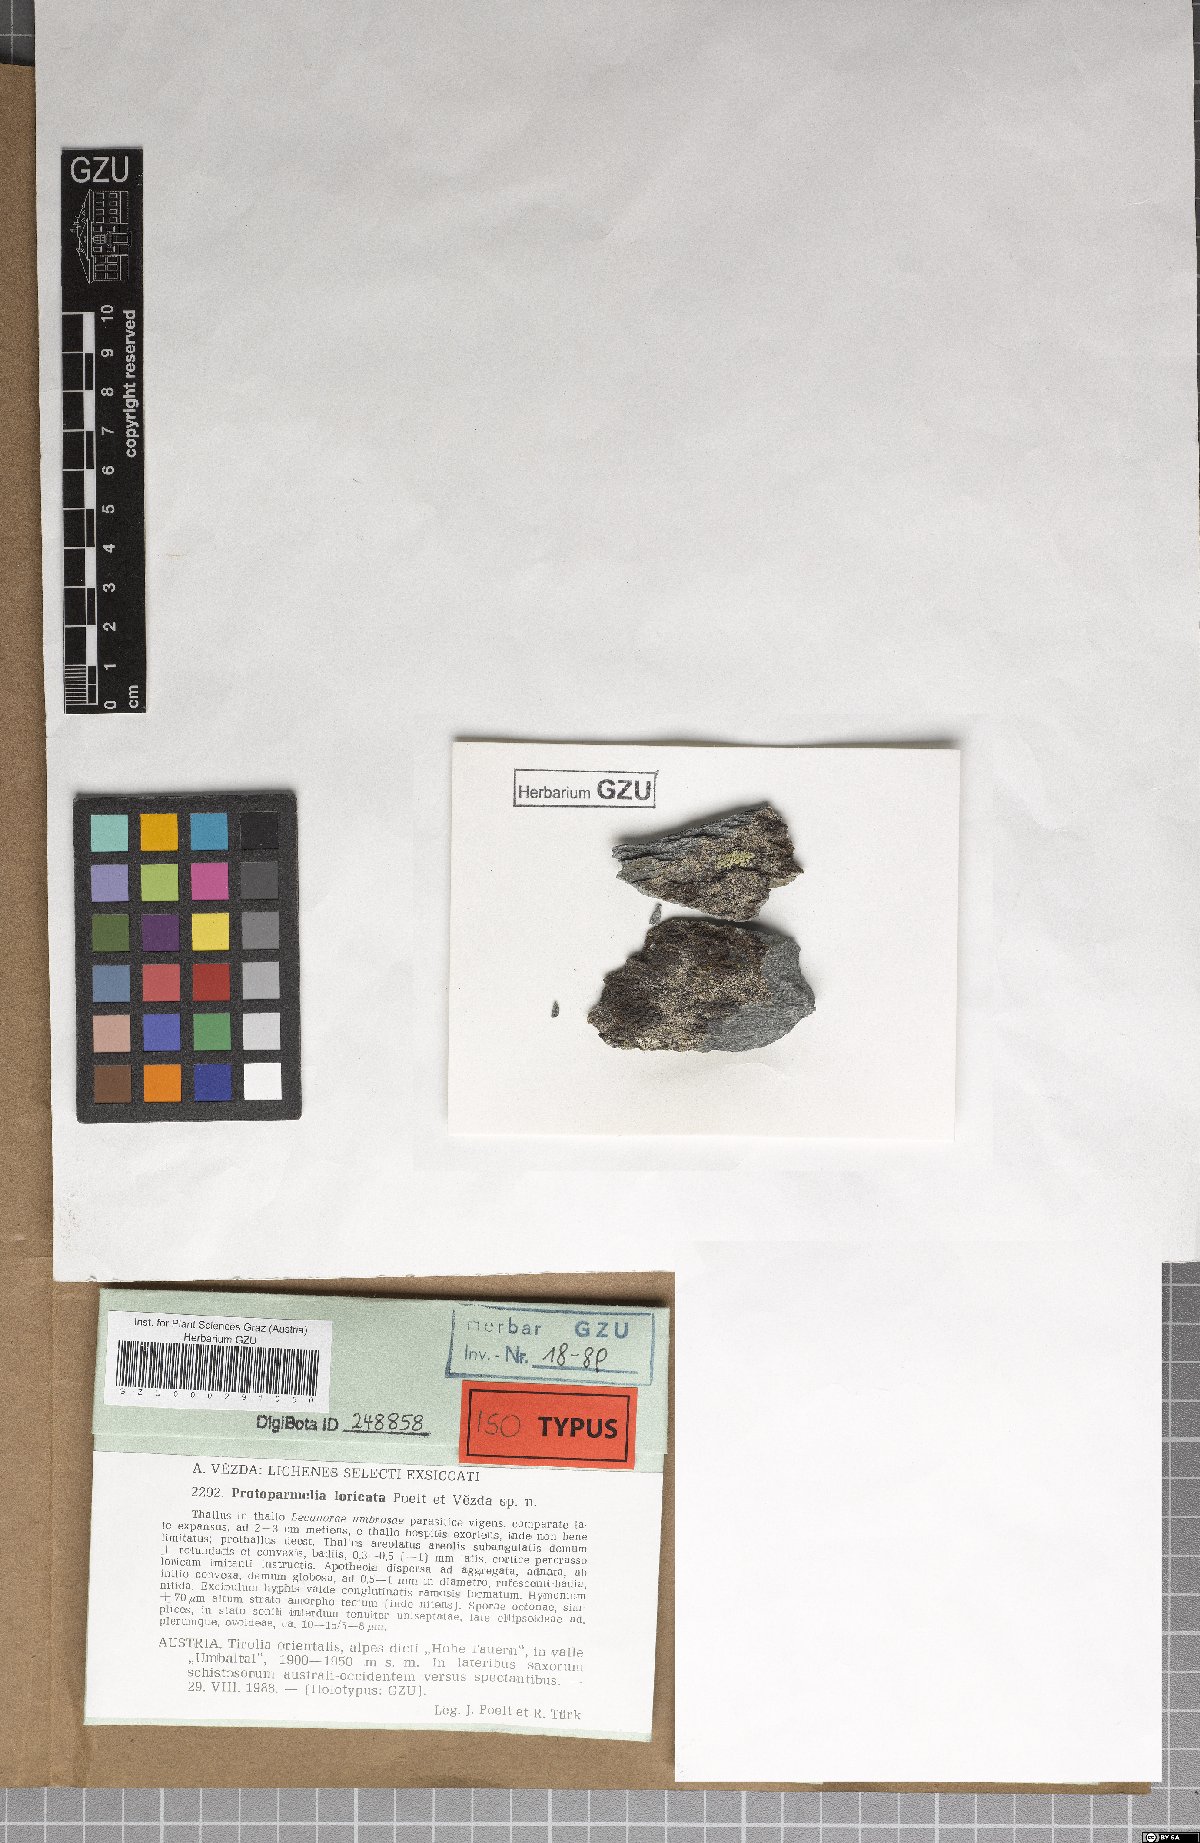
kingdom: Fungi
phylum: Ascomycota
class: Lecanoromycetes
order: Lecanorales
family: Parmeliaceae
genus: Protoparmelia
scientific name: Protoparmelia loricata
